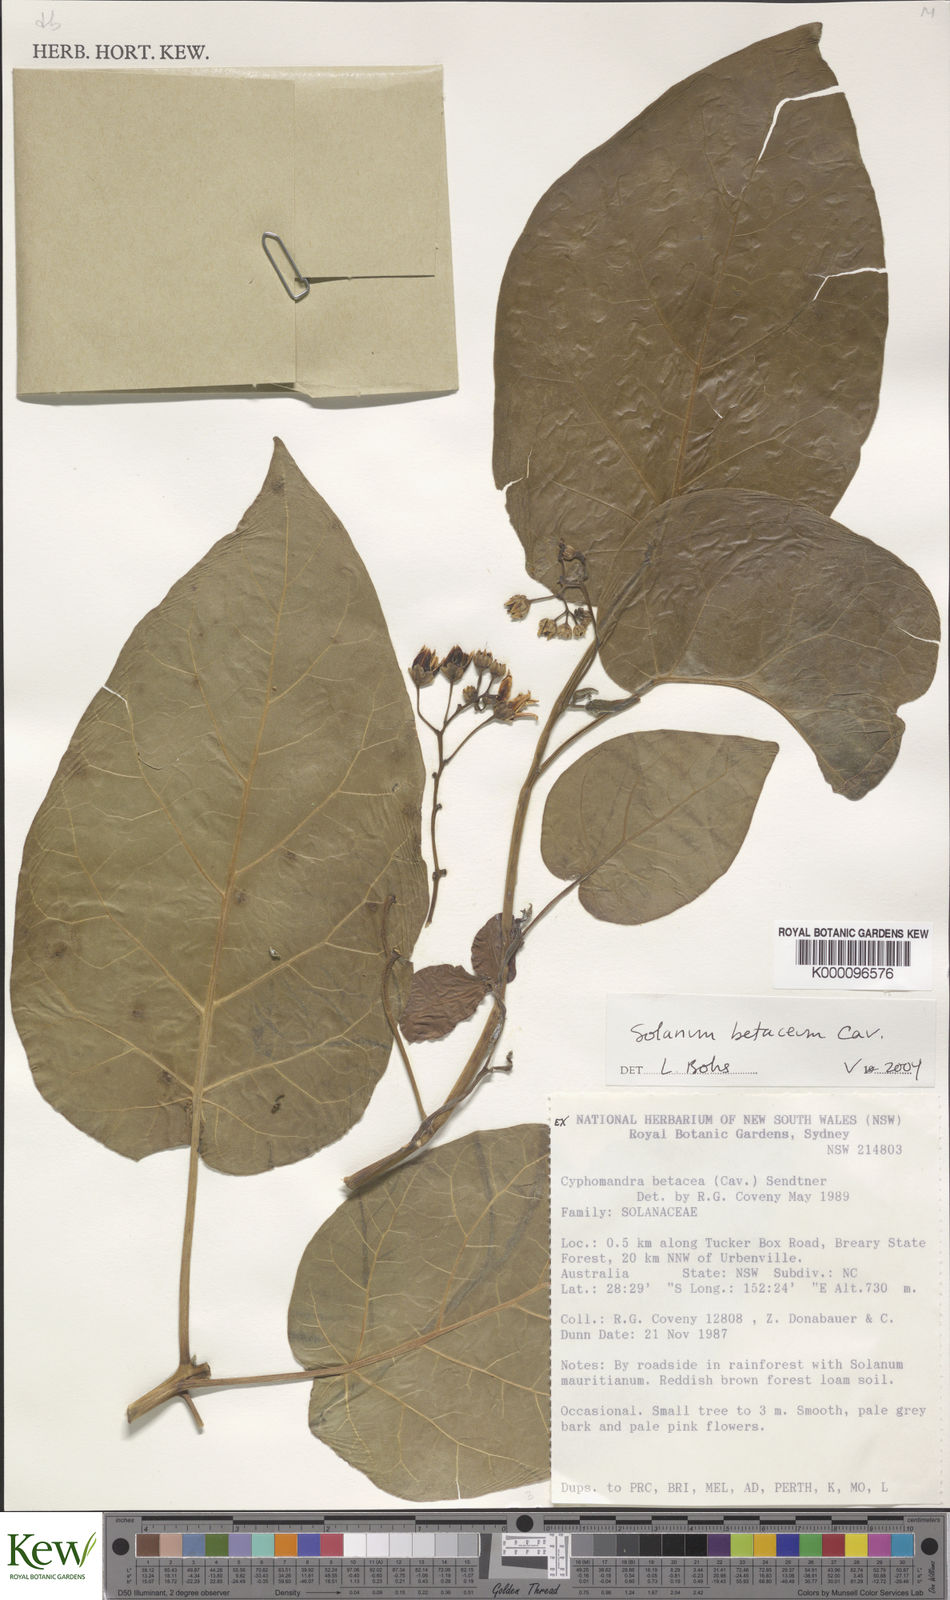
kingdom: Plantae
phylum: Tracheophyta
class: Magnoliopsida
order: Solanales
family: Solanaceae
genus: Solanum
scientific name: Solanum
